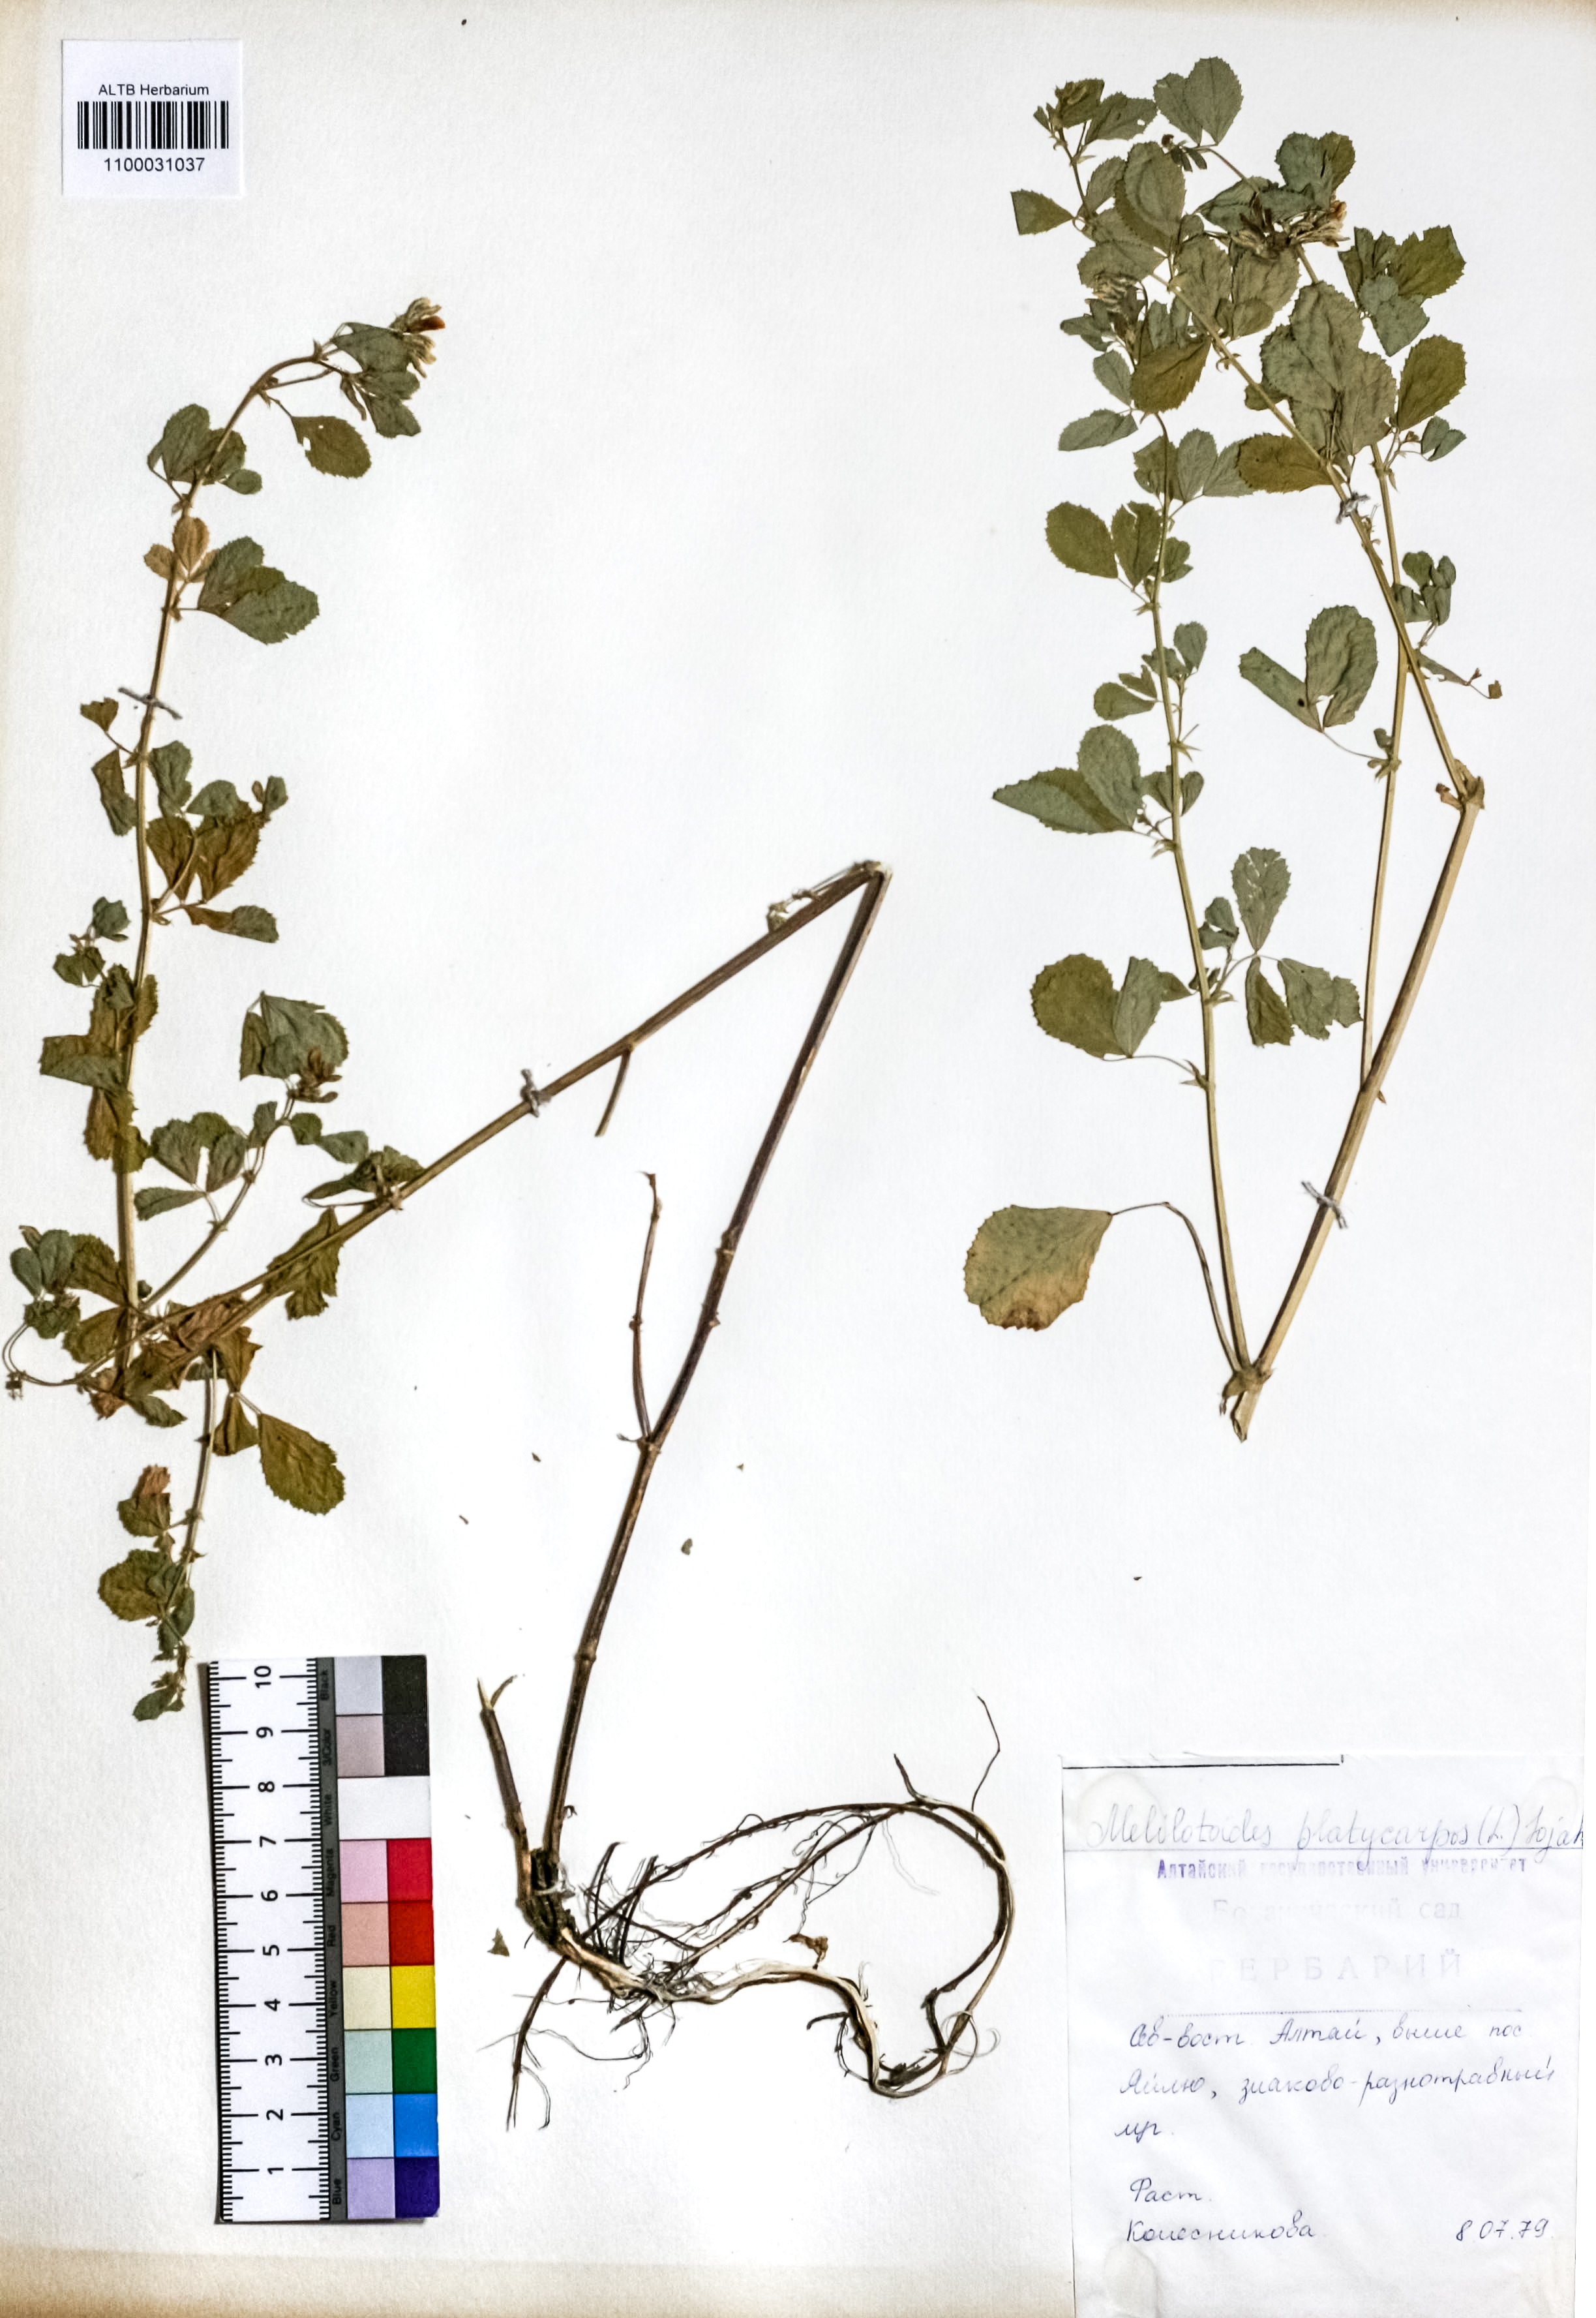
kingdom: Plantae
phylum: Tracheophyta
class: Magnoliopsida
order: Fabales
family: Fabaceae
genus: Medicago
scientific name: Medicago platycarpos
